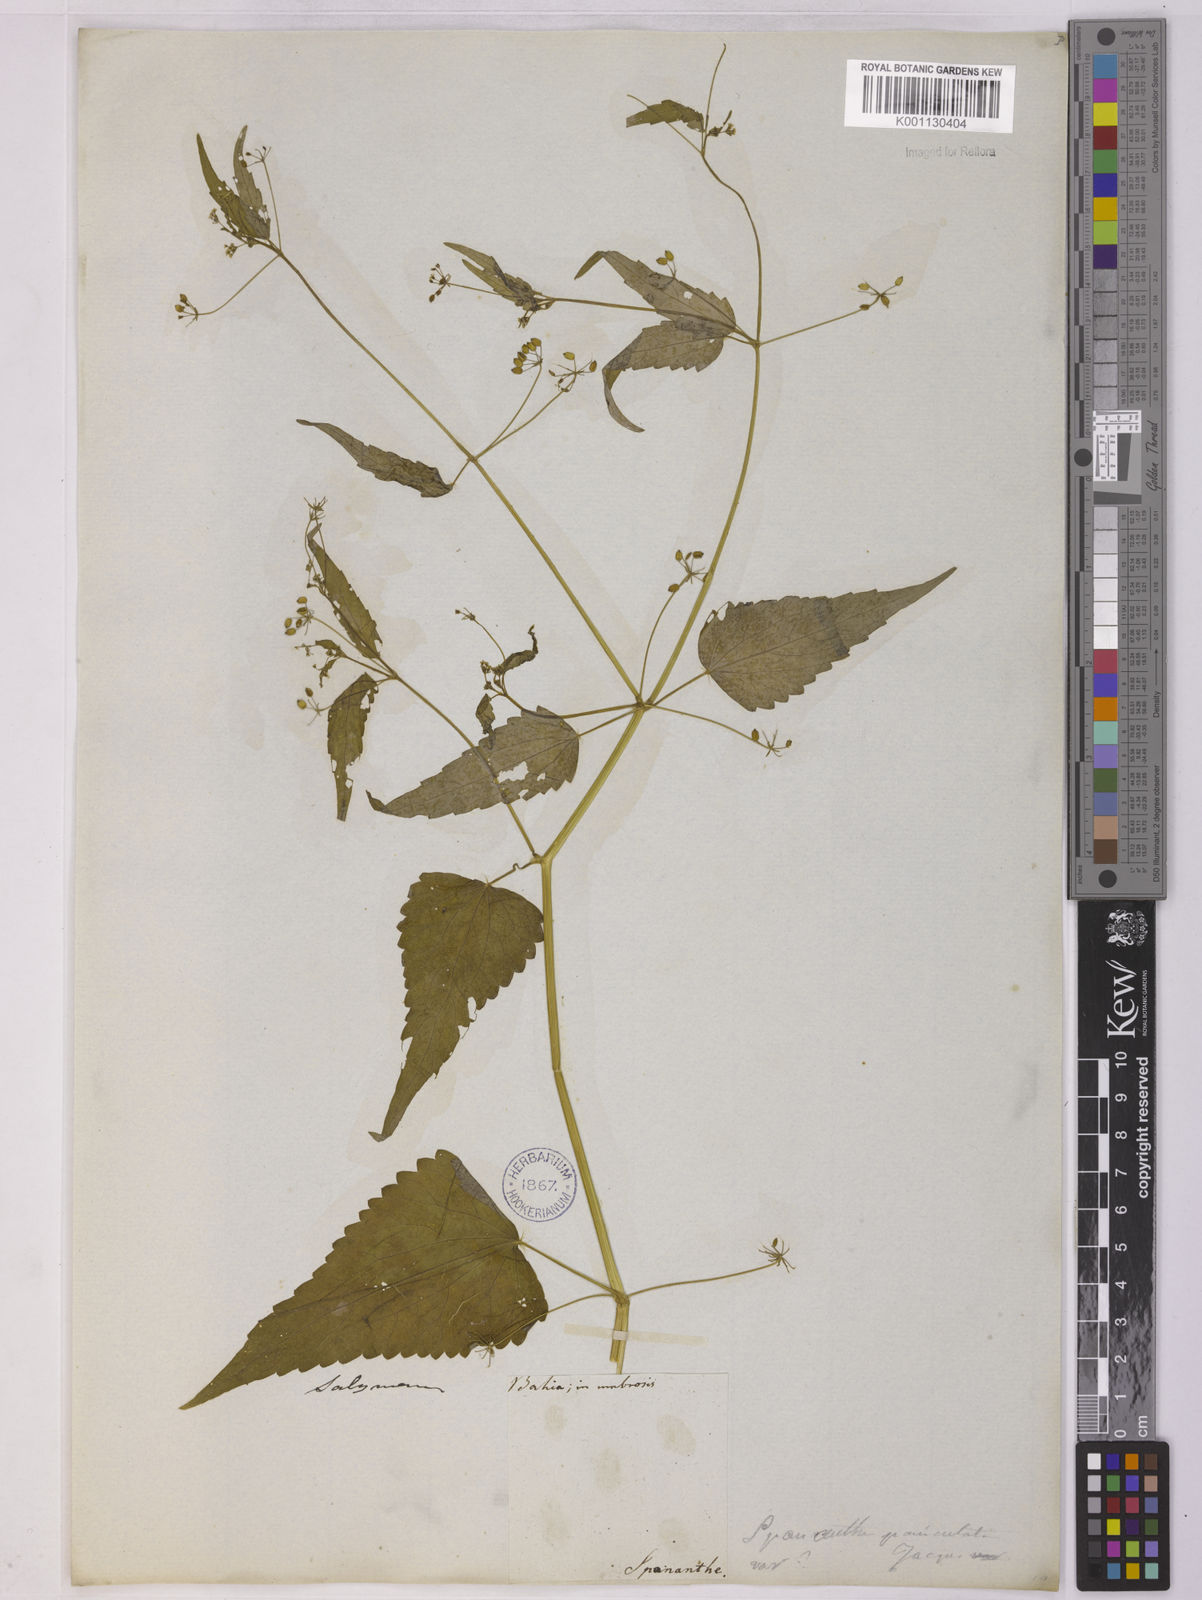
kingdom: Plantae
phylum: Tracheophyta
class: Magnoliopsida
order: Apiales
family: Apiaceae
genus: Spananthe
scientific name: Spananthe paniculata
